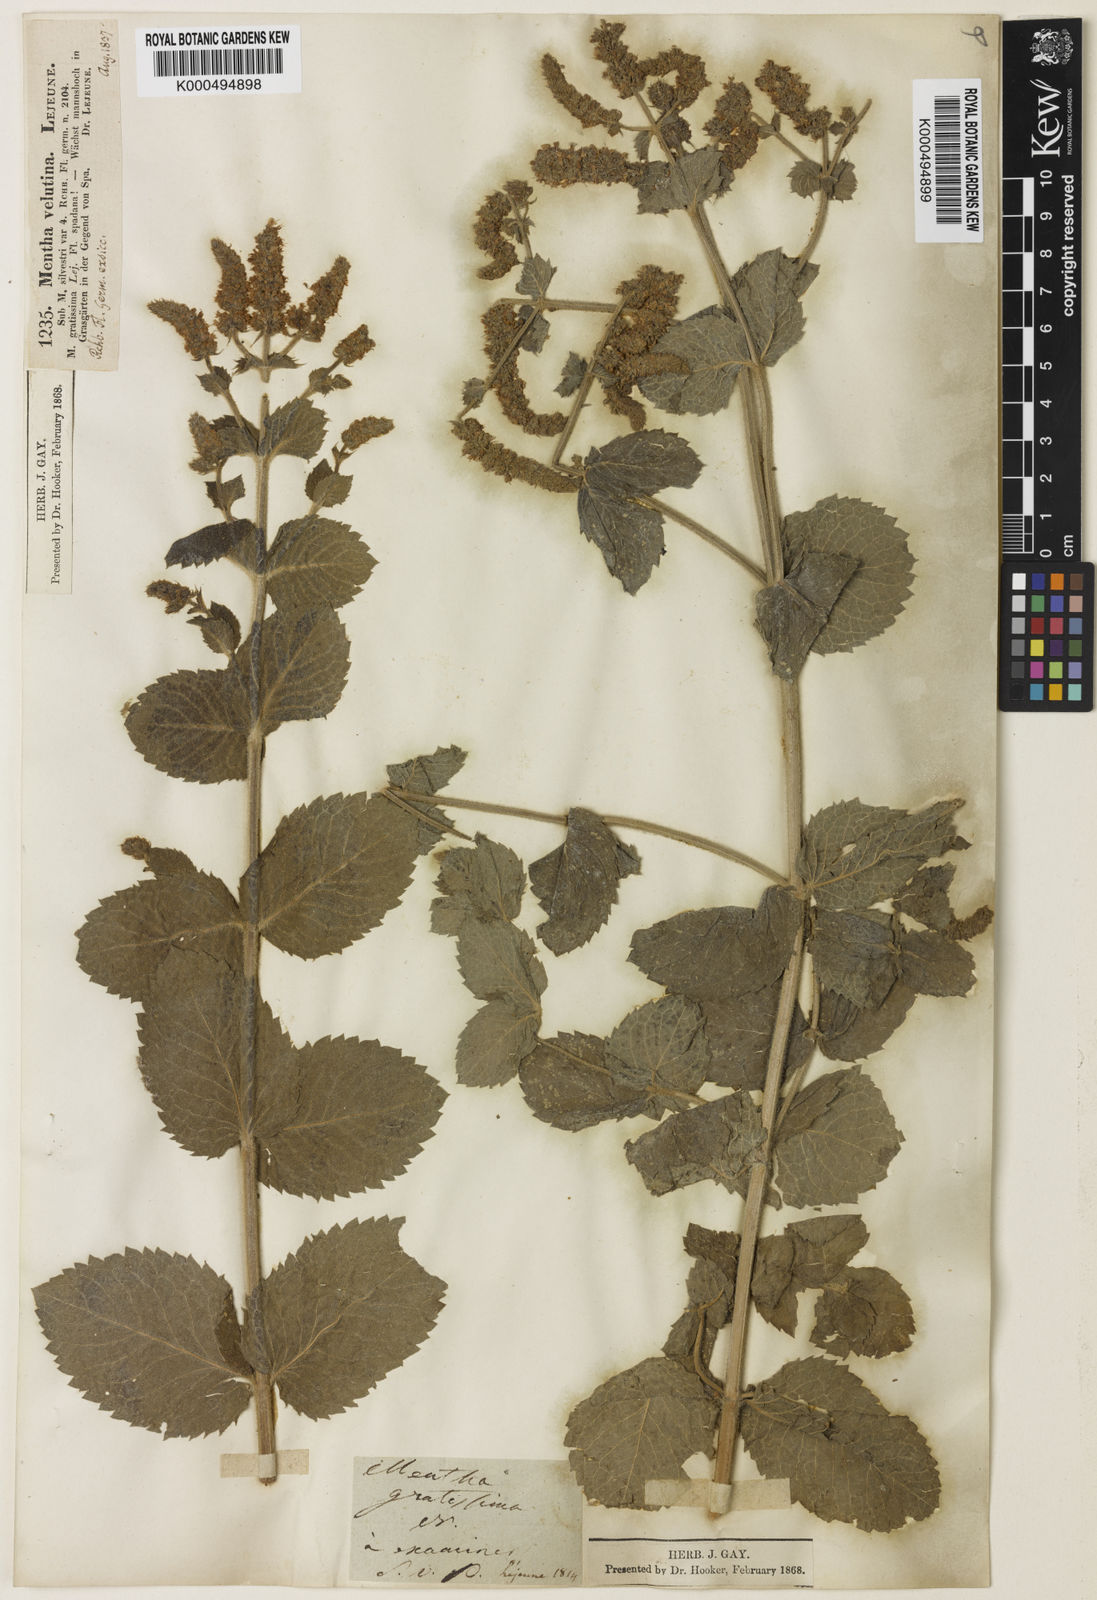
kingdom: Plantae
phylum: Tracheophyta
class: Magnoliopsida
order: Lamiales
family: Lamiaceae
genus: Mentha
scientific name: Mentha villosa
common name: Apple mint
